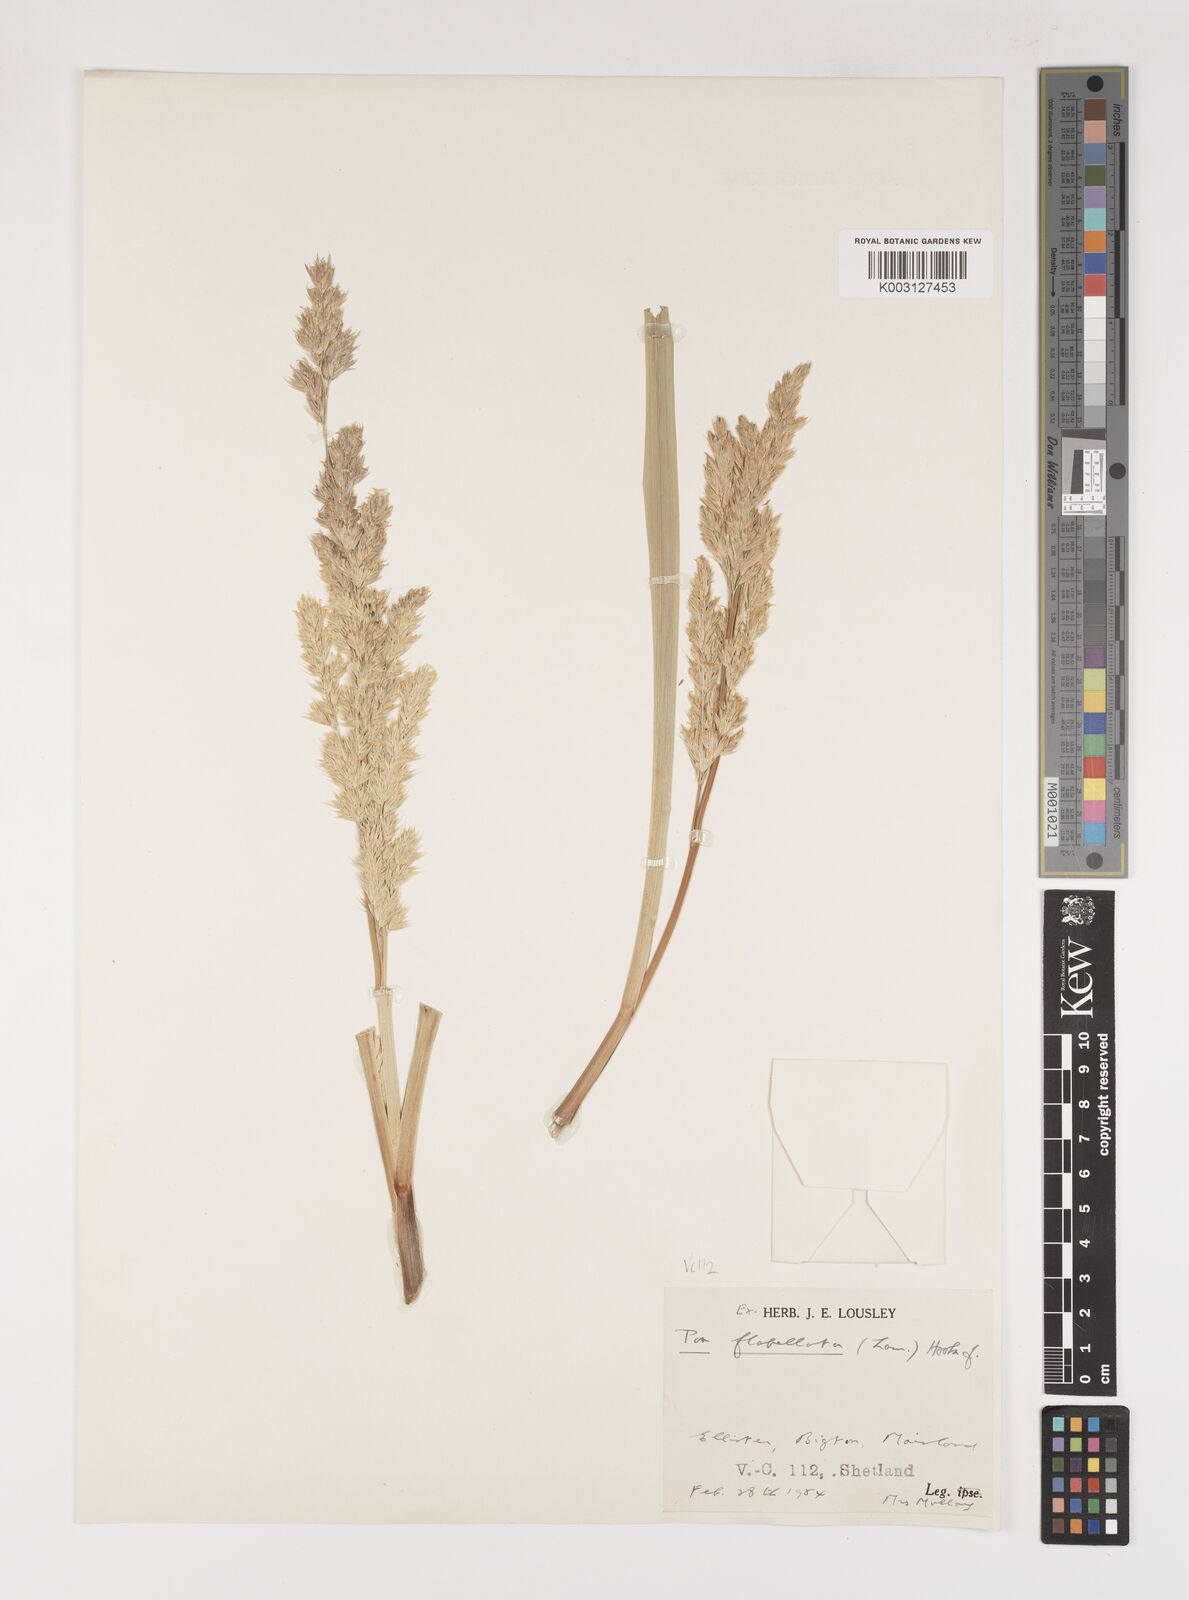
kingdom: Plantae
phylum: Tracheophyta
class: Liliopsida
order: Poales
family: Poaceae
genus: Poa
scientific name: Poa flabellata
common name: Tussac-grass
